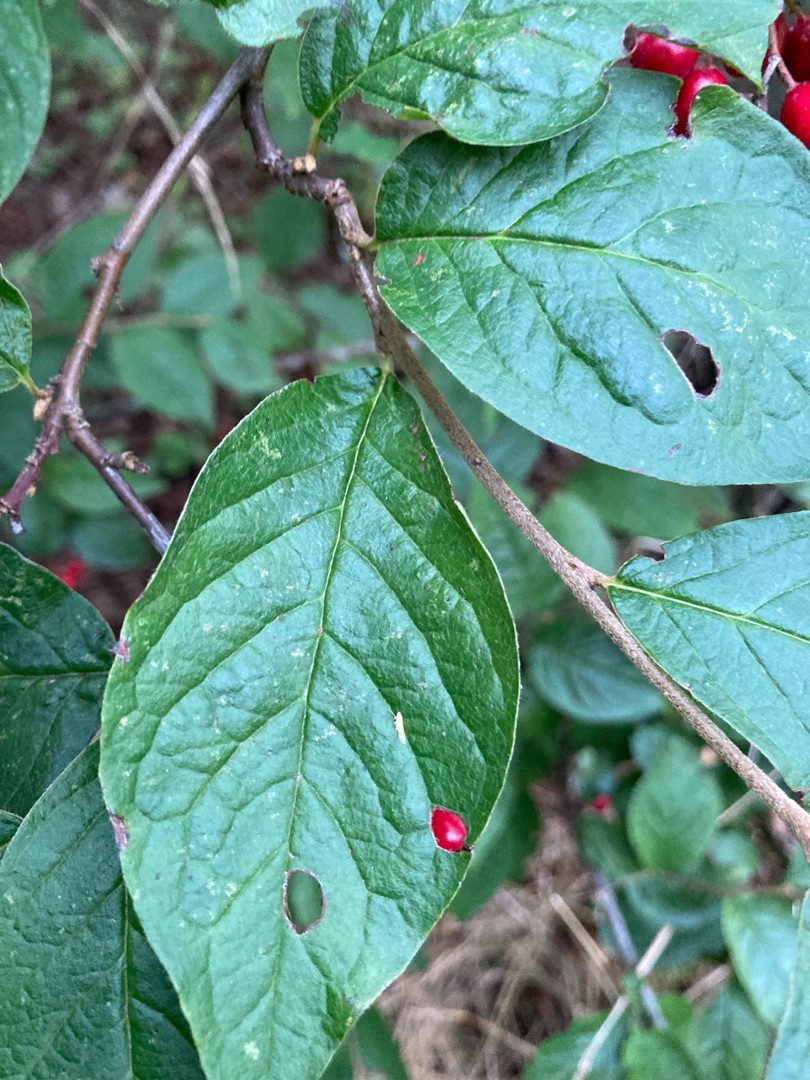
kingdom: Plantae
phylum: Tracheophyta
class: Magnoliopsida
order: Rosales
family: Rosaceae
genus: Cotoneaster
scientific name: Cotoneaster bullatus
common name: Buklet dværgmispel
